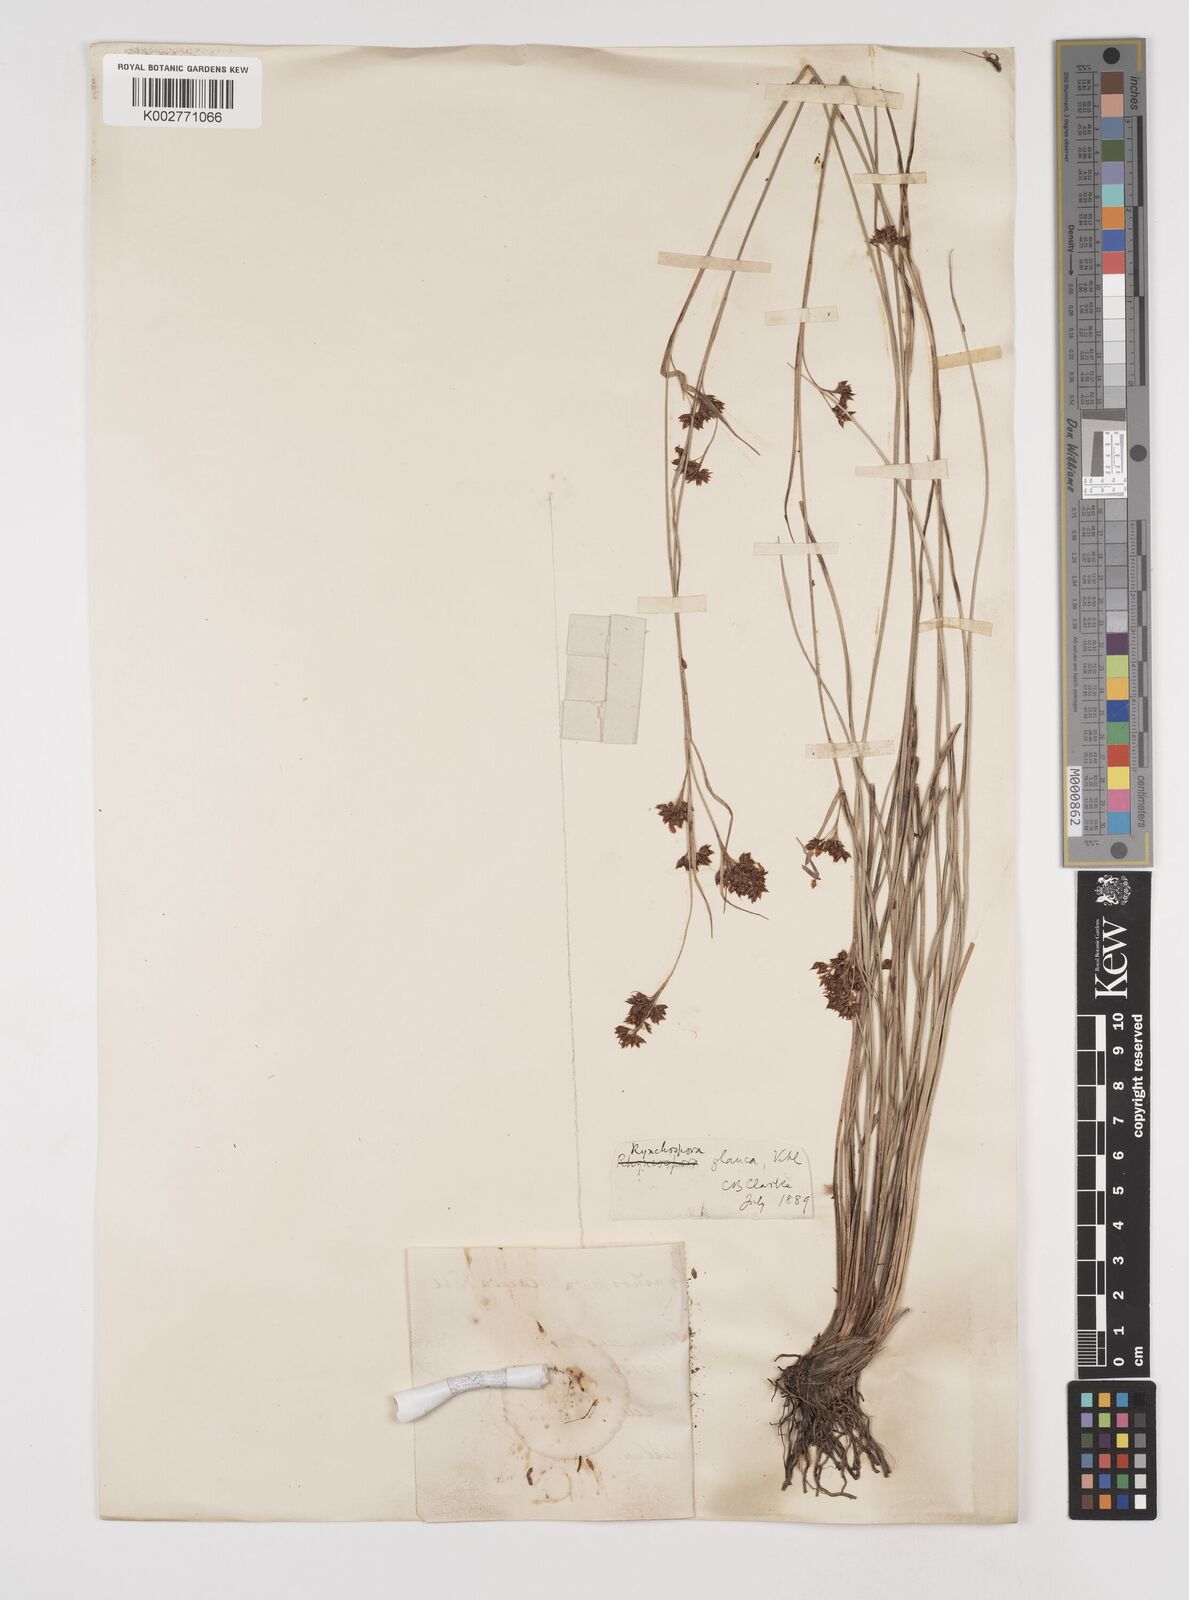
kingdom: Plantae
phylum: Tracheophyta
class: Liliopsida
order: Poales
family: Cyperaceae
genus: Rhynchospora
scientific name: Rhynchospora rugosa
